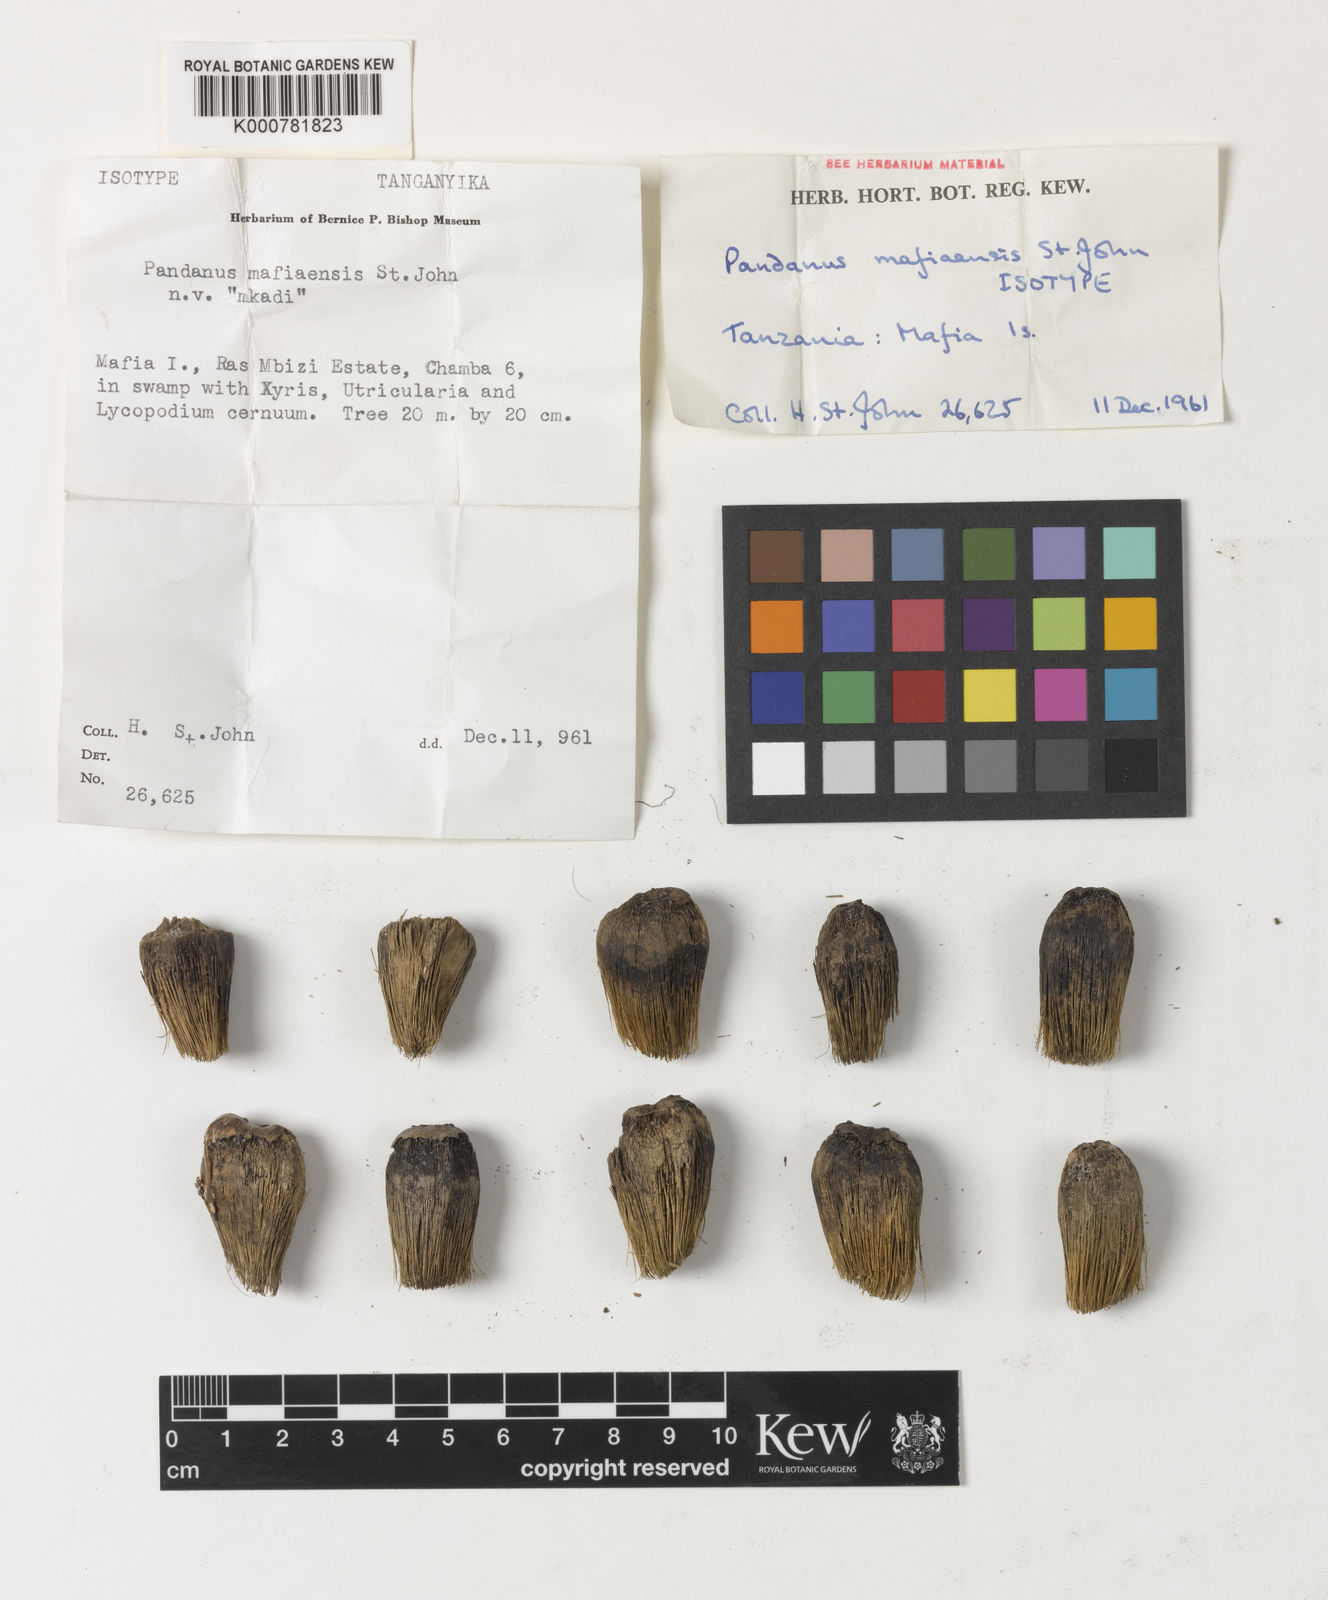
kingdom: Plantae
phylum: Tracheophyta
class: Liliopsida
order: Pandanales
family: Pandanaceae
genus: Pandanus
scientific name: Pandanus rabaiensis
